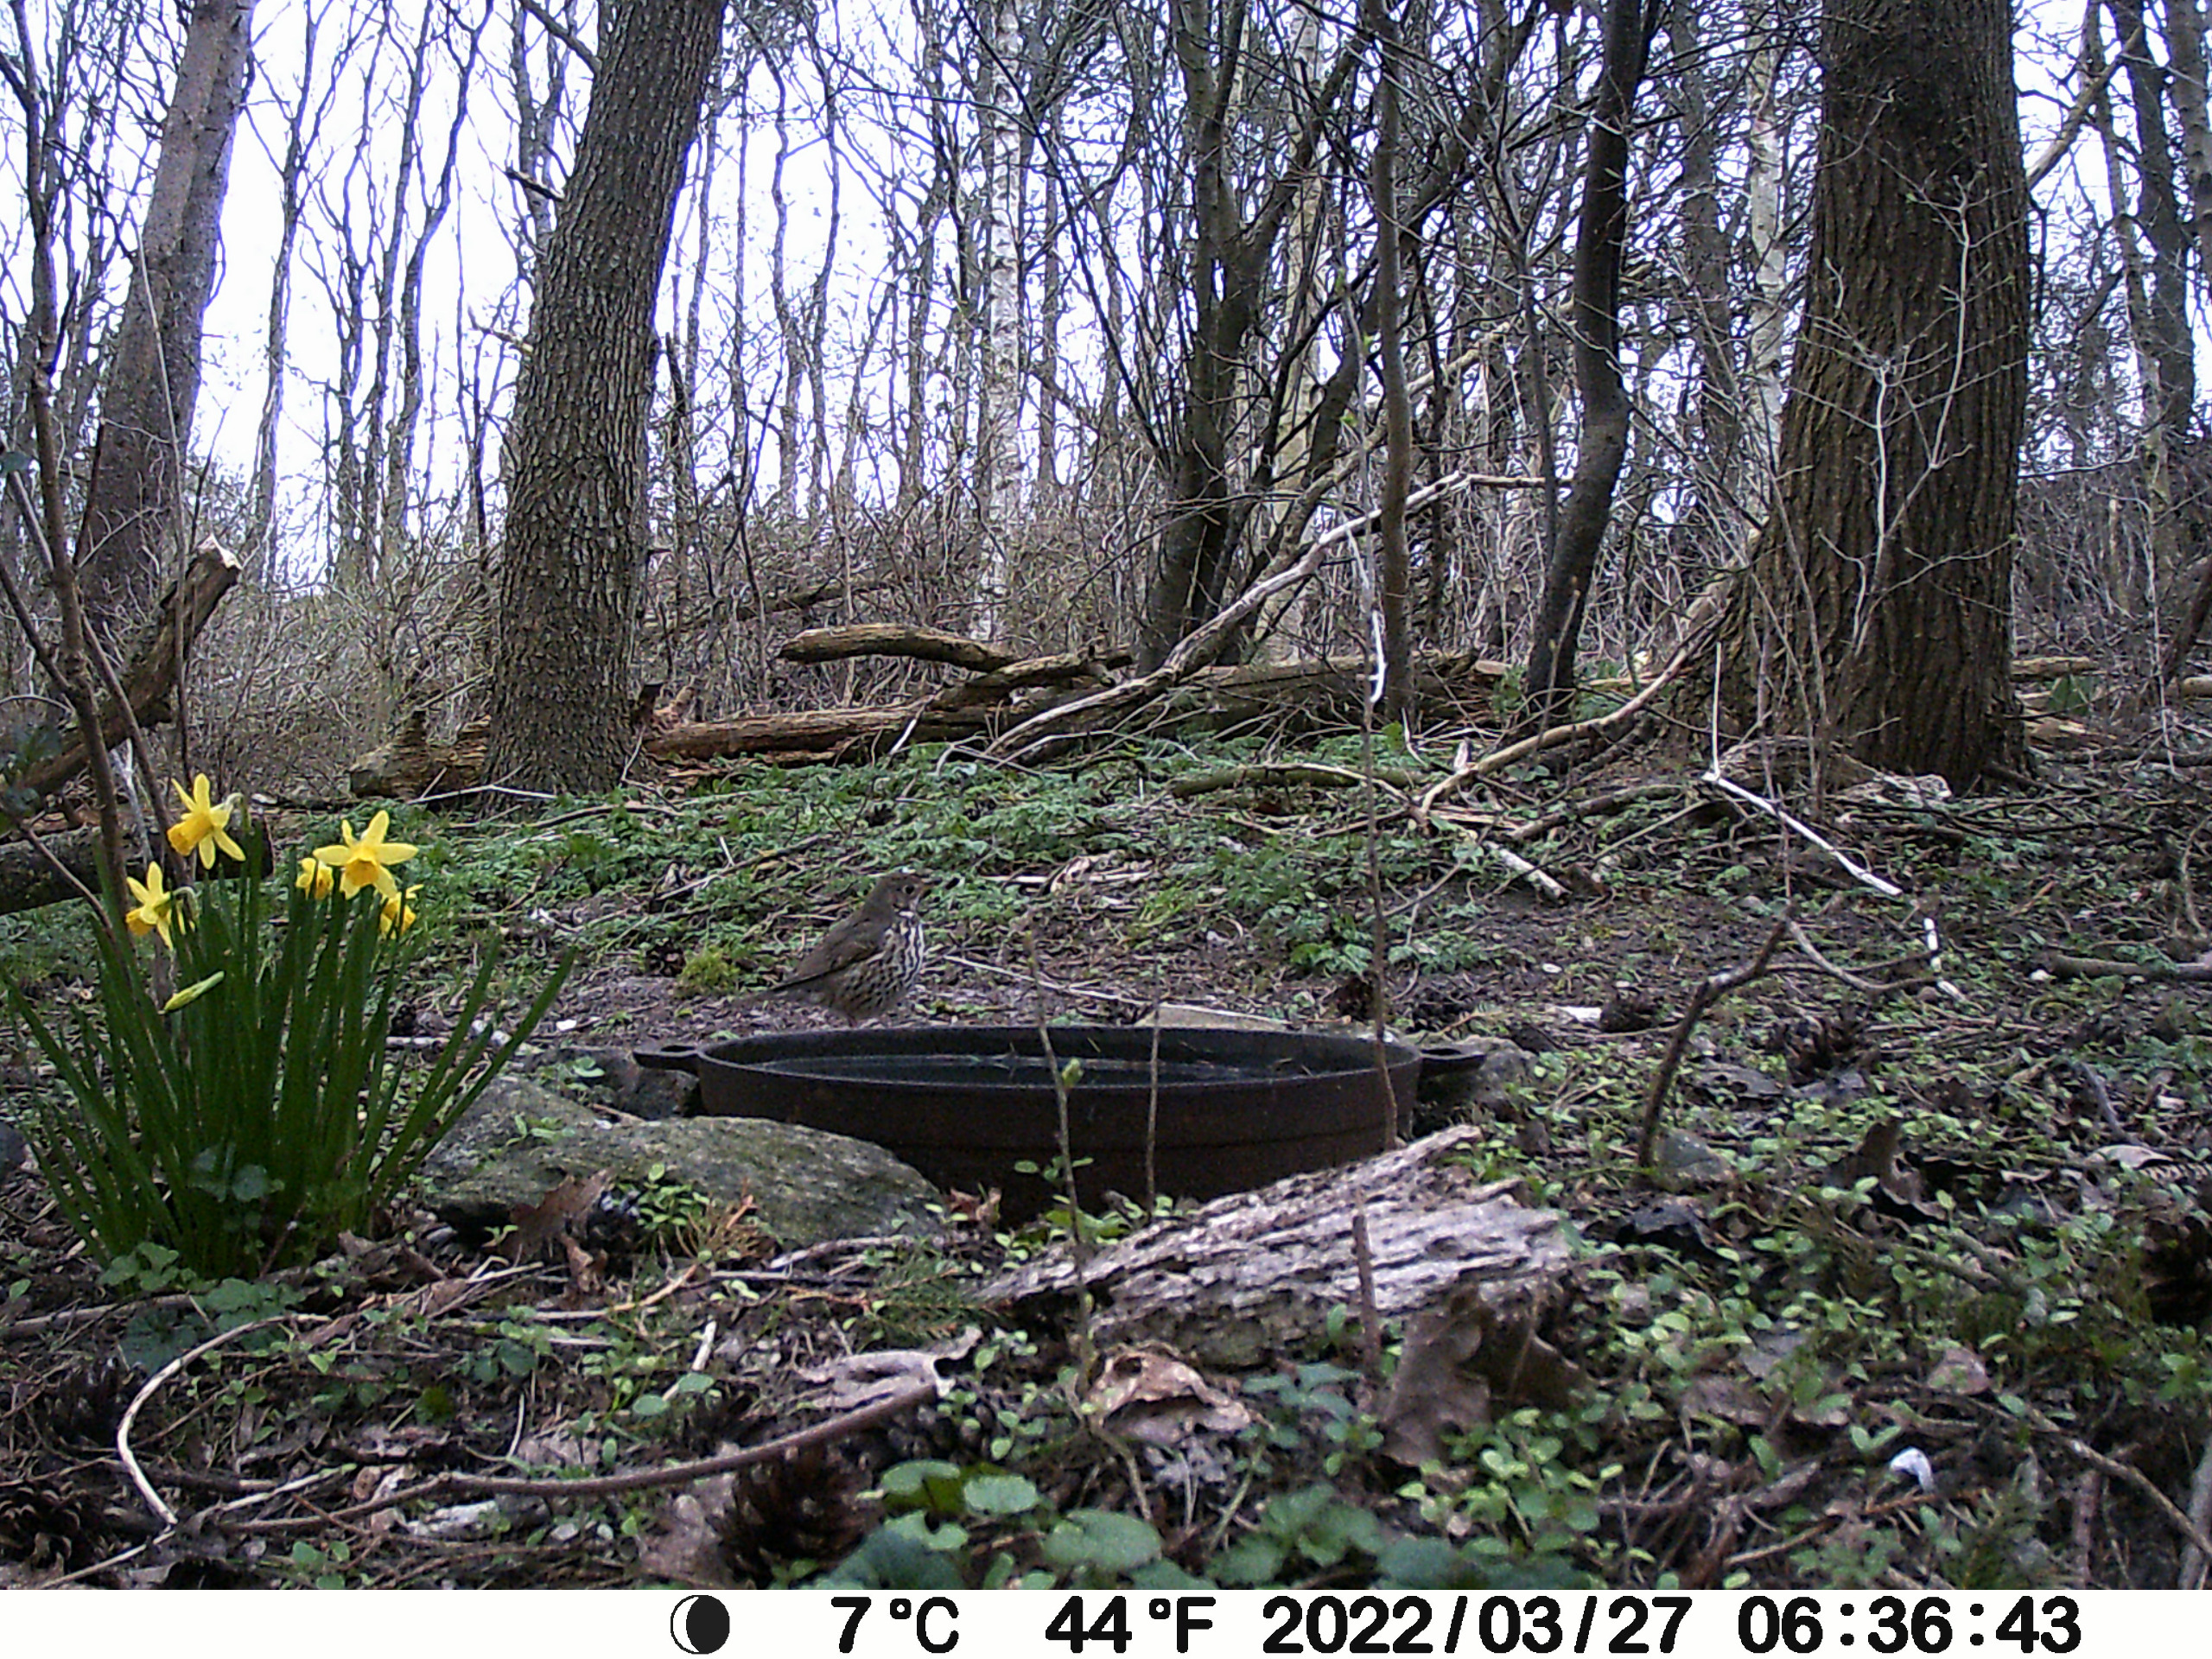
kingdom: Animalia
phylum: Chordata
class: Aves
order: Passeriformes
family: Turdidae
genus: Turdus
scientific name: Turdus philomelos
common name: Sangdrossel
